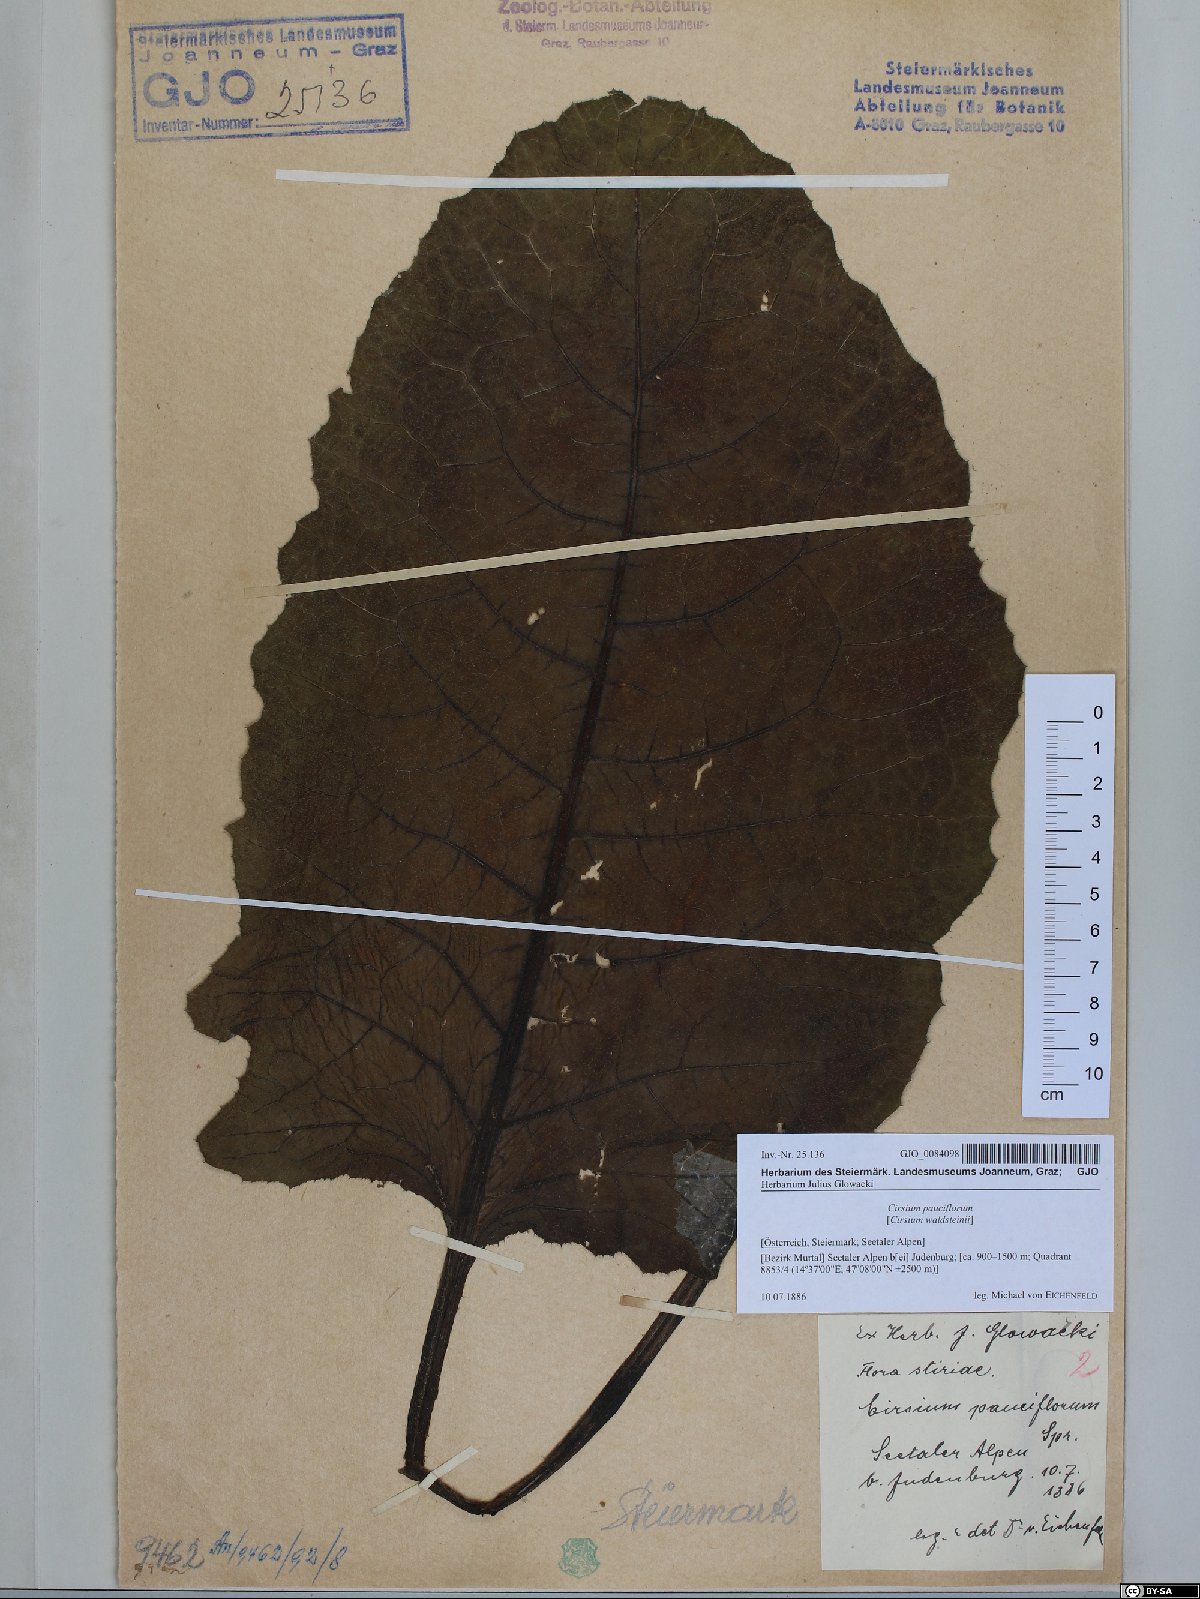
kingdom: Plantae
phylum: Tracheophyta
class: Magnoliopsida
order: Asterales
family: Asteraceae
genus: Cirsium
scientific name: Cirsium greimleri
